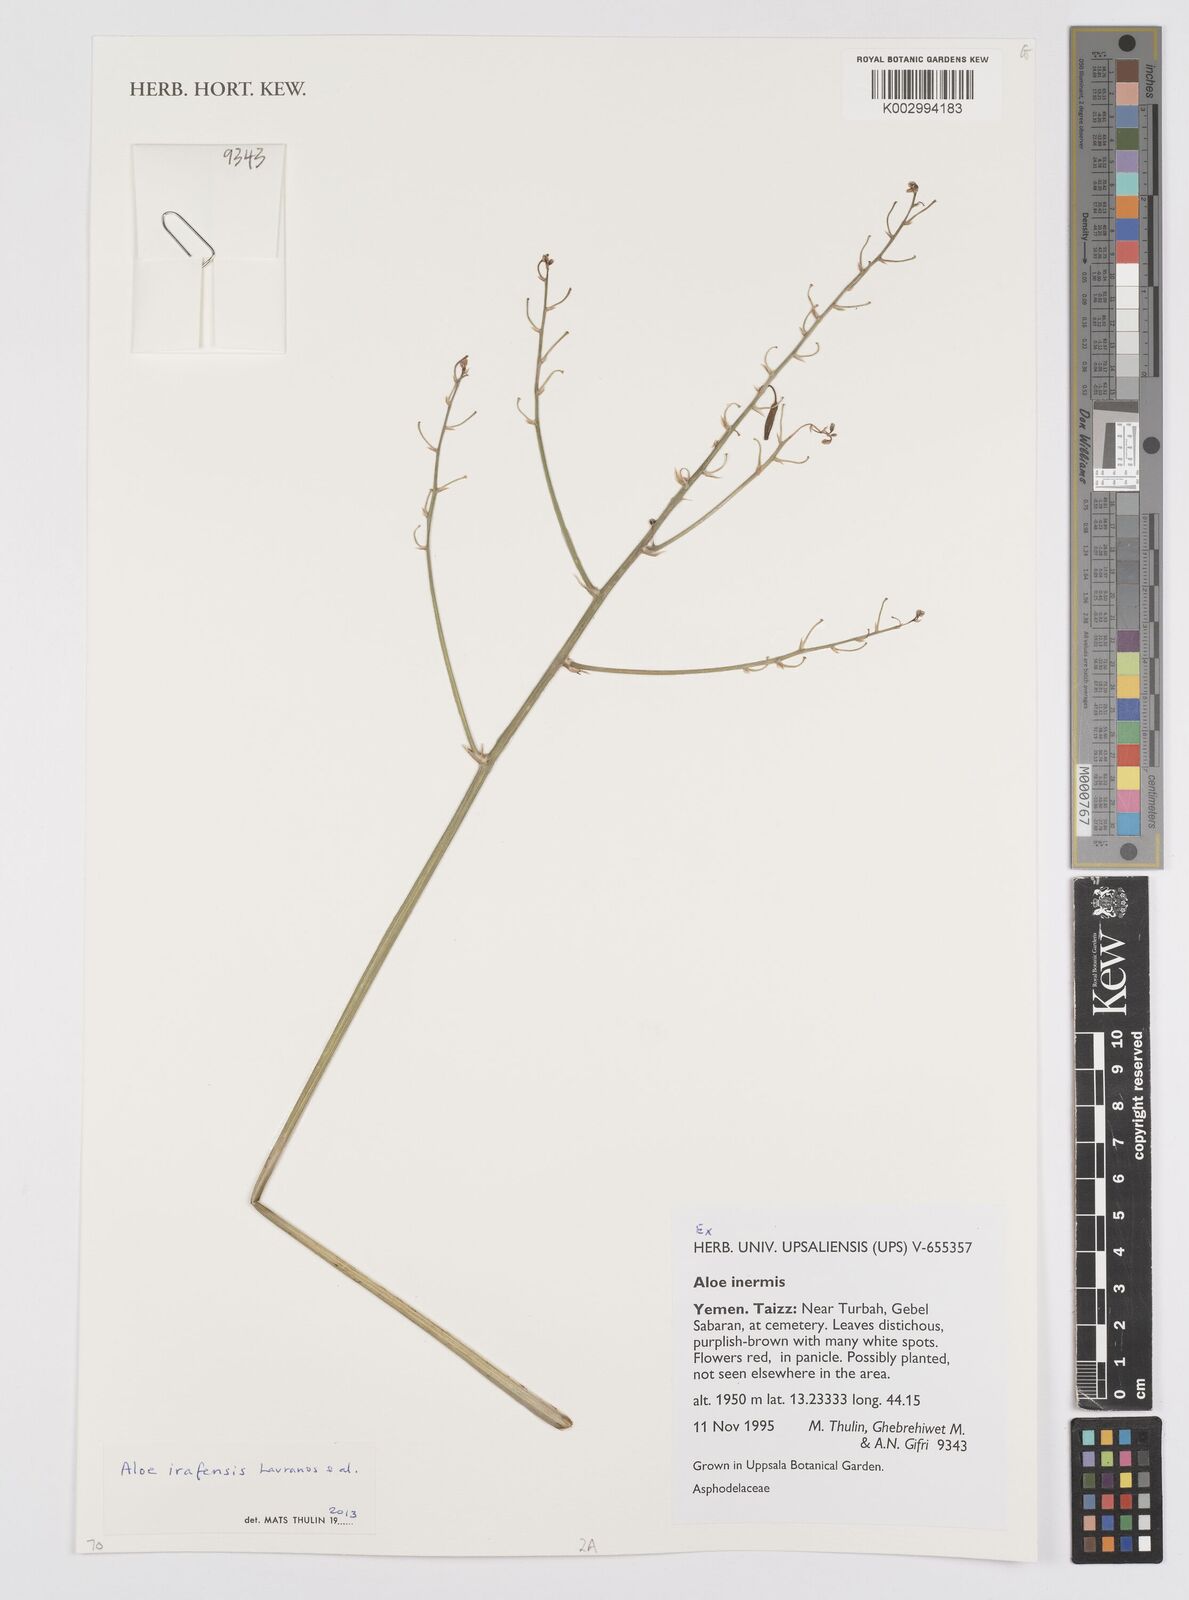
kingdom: Plantae
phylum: Tracheophyta
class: Liliopsida
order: Asparagales
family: Asphodelaceae
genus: Aloe
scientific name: Aloe irafensis
